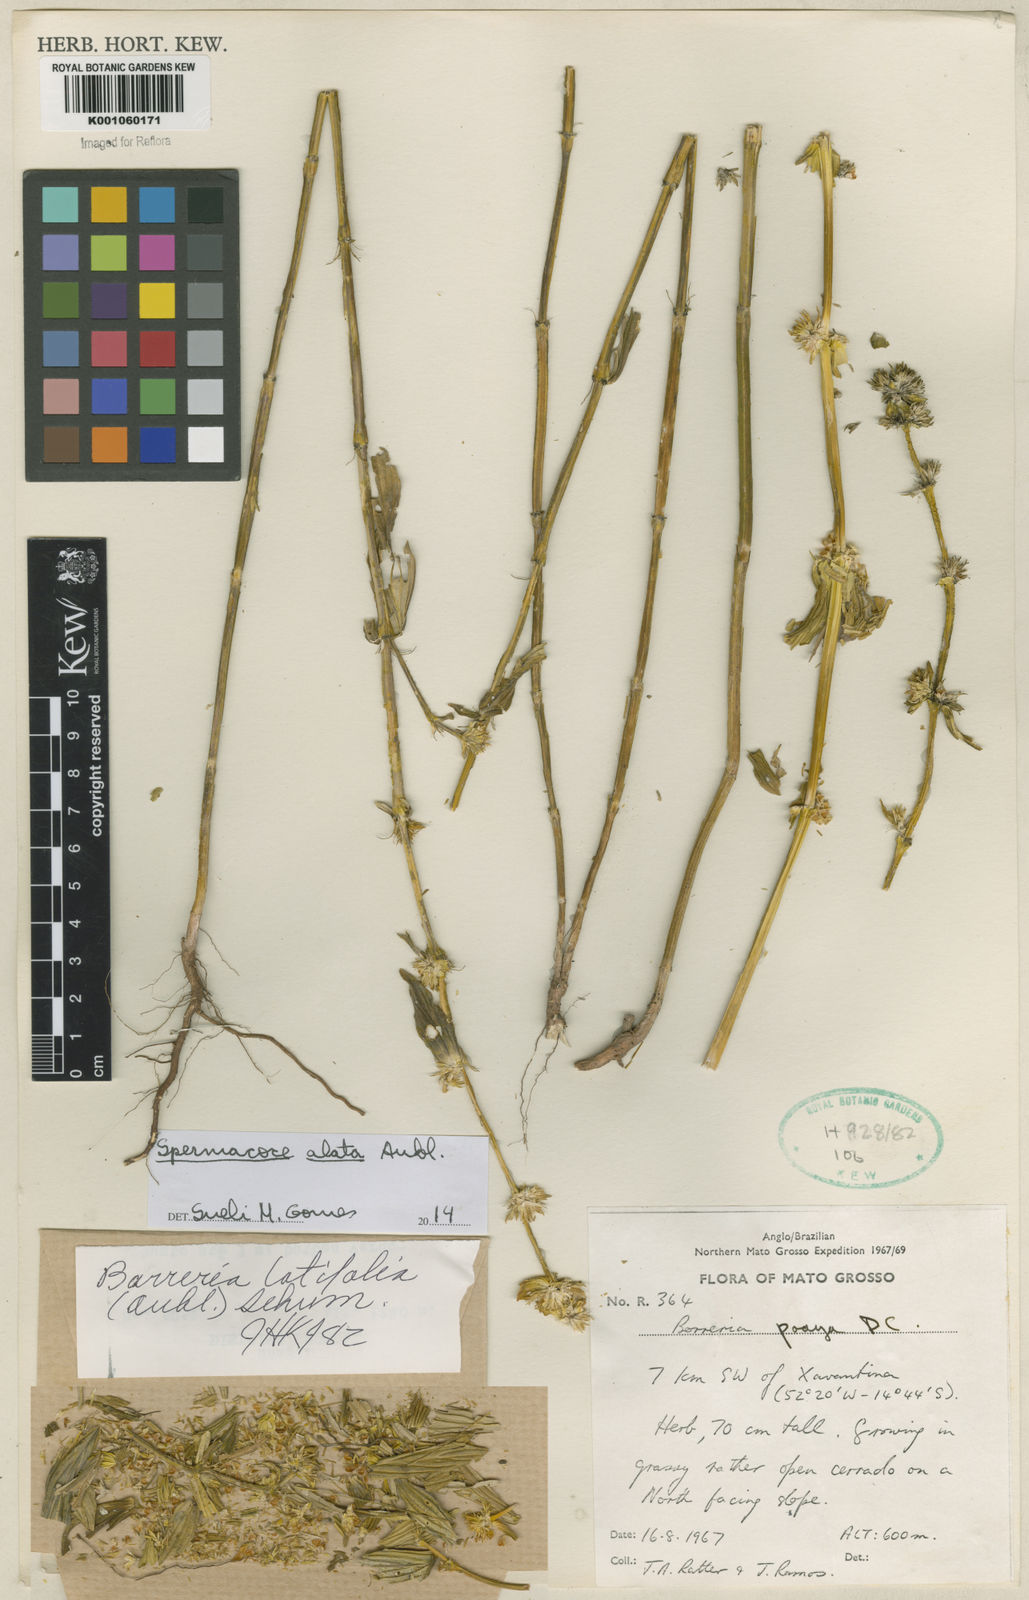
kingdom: Plantae
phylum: Tracheophyta
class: Magnoliopsida
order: Gentianales
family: Rubiaceae
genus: Spermacoce
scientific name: Spermacoce
